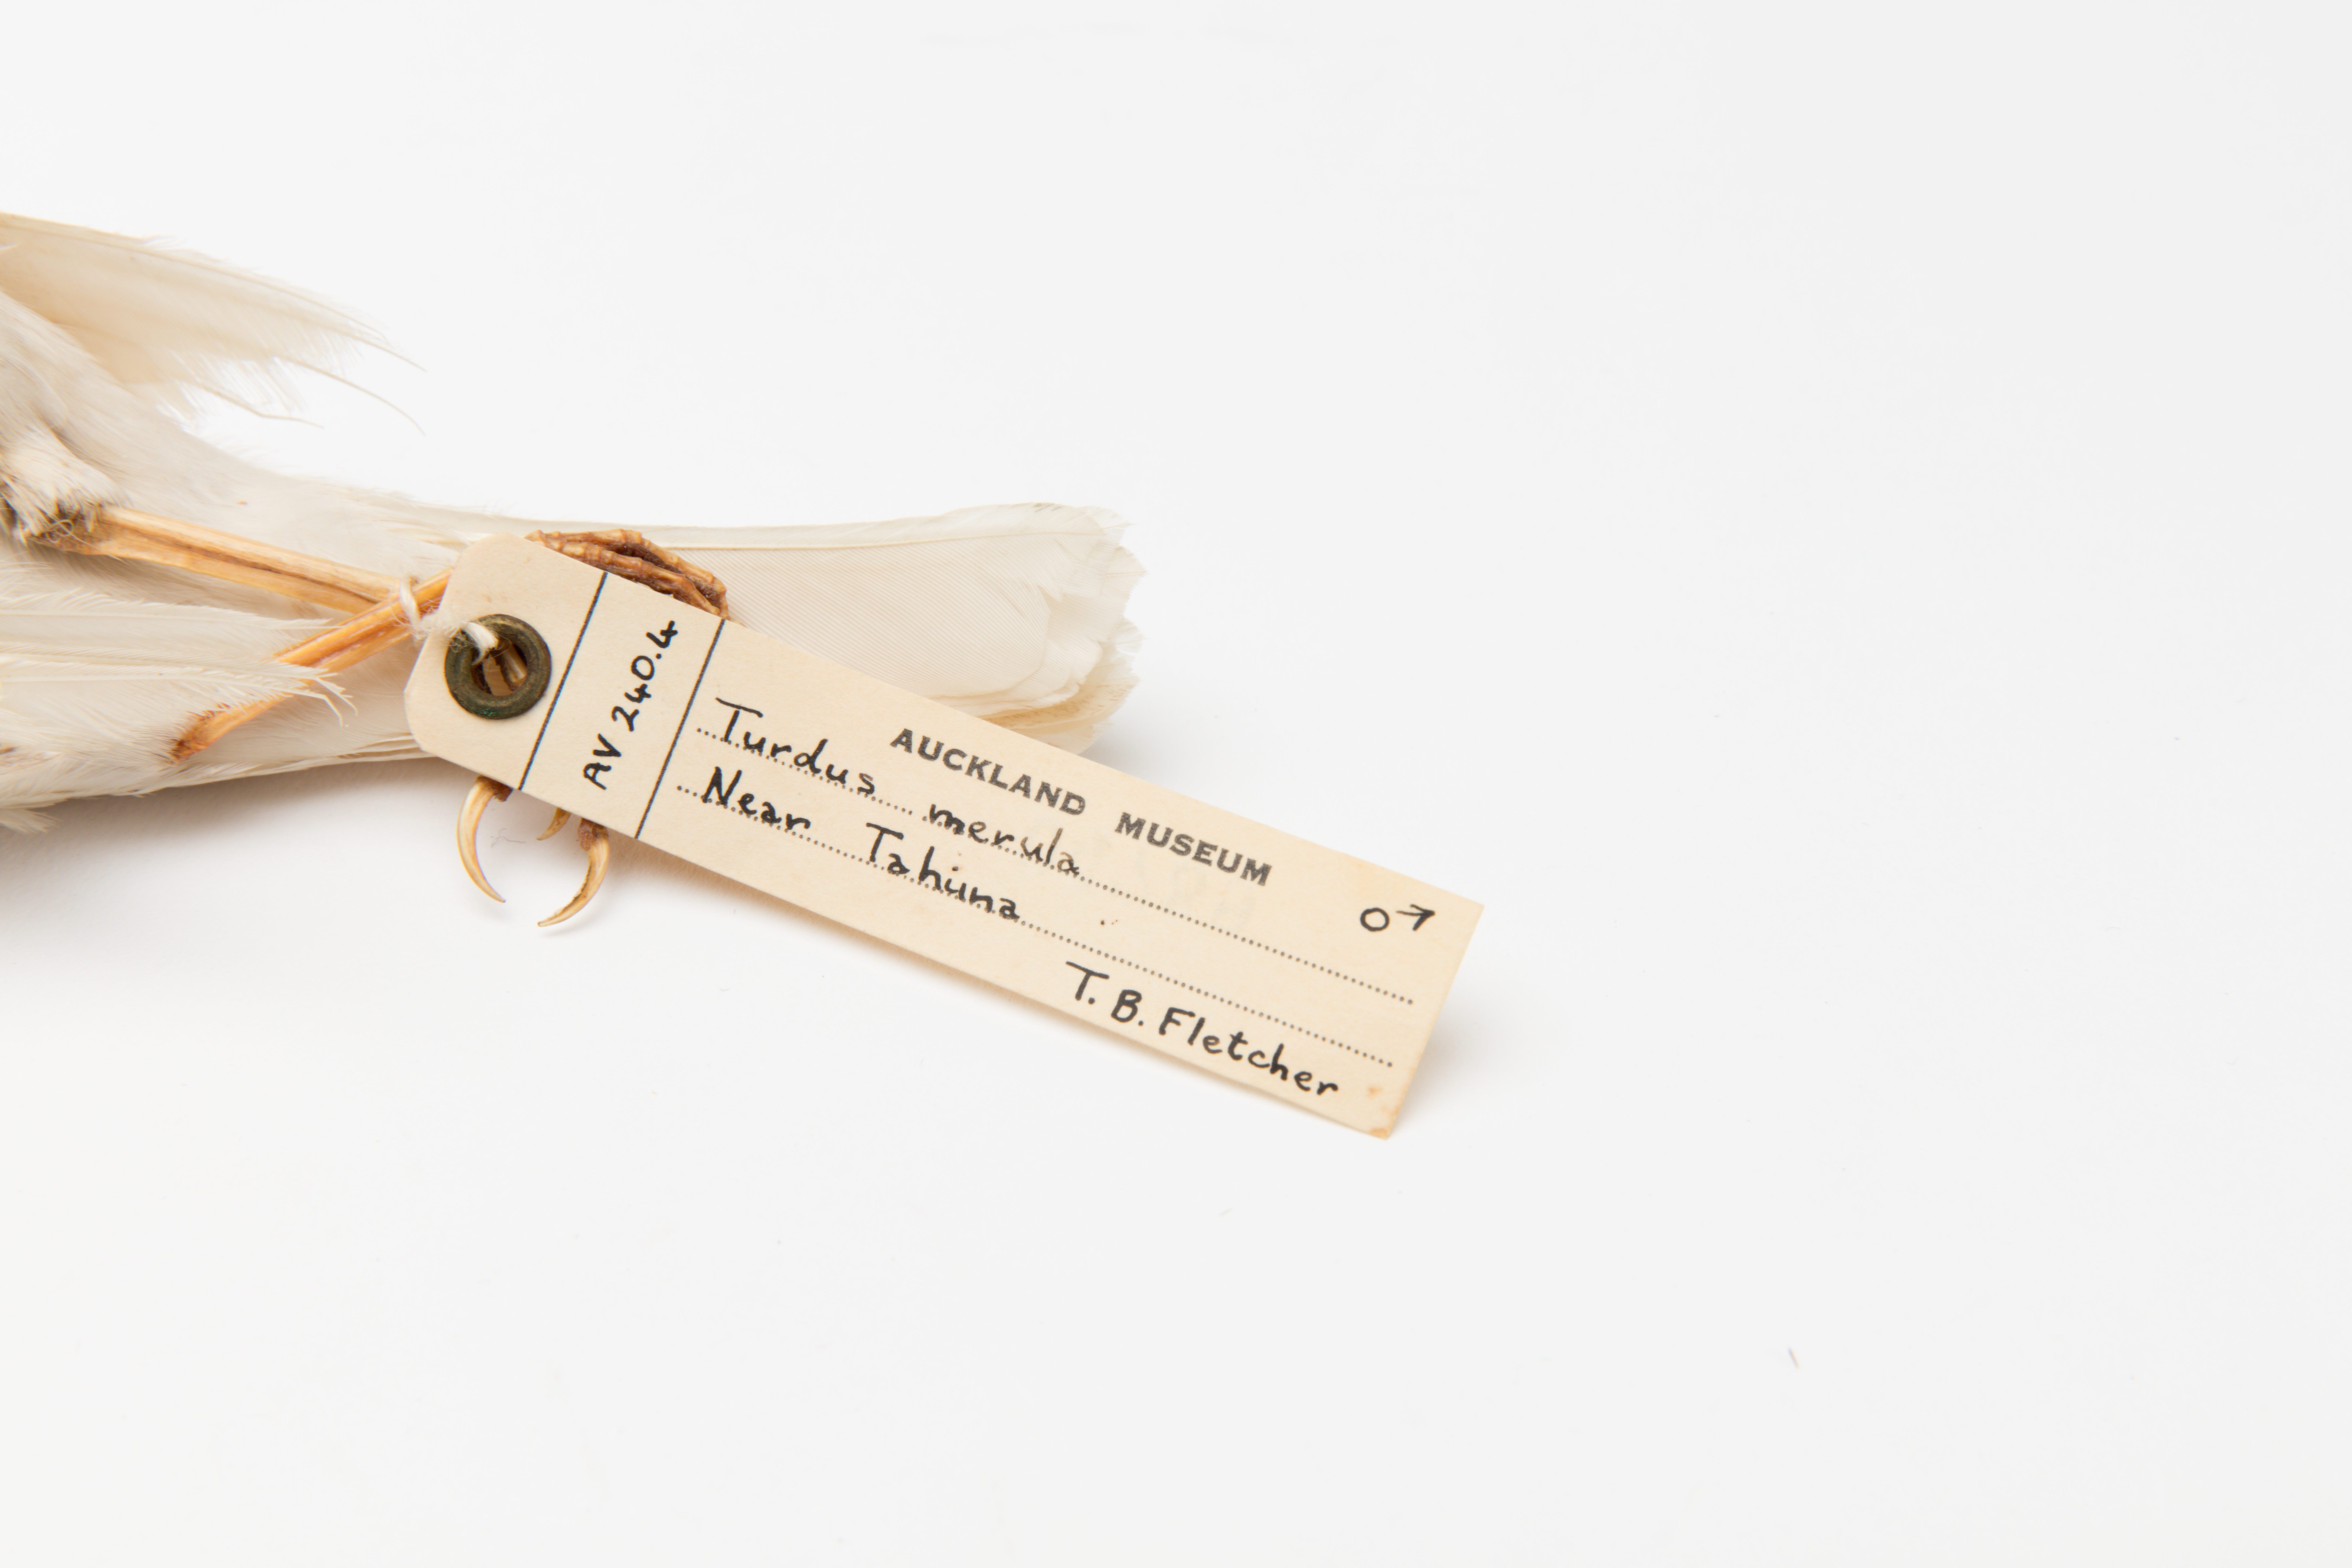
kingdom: Animalia
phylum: Chordata
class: Aves
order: Passeriformes
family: Turdidae
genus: Turdus
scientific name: Turdus merula
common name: Common blackbird
